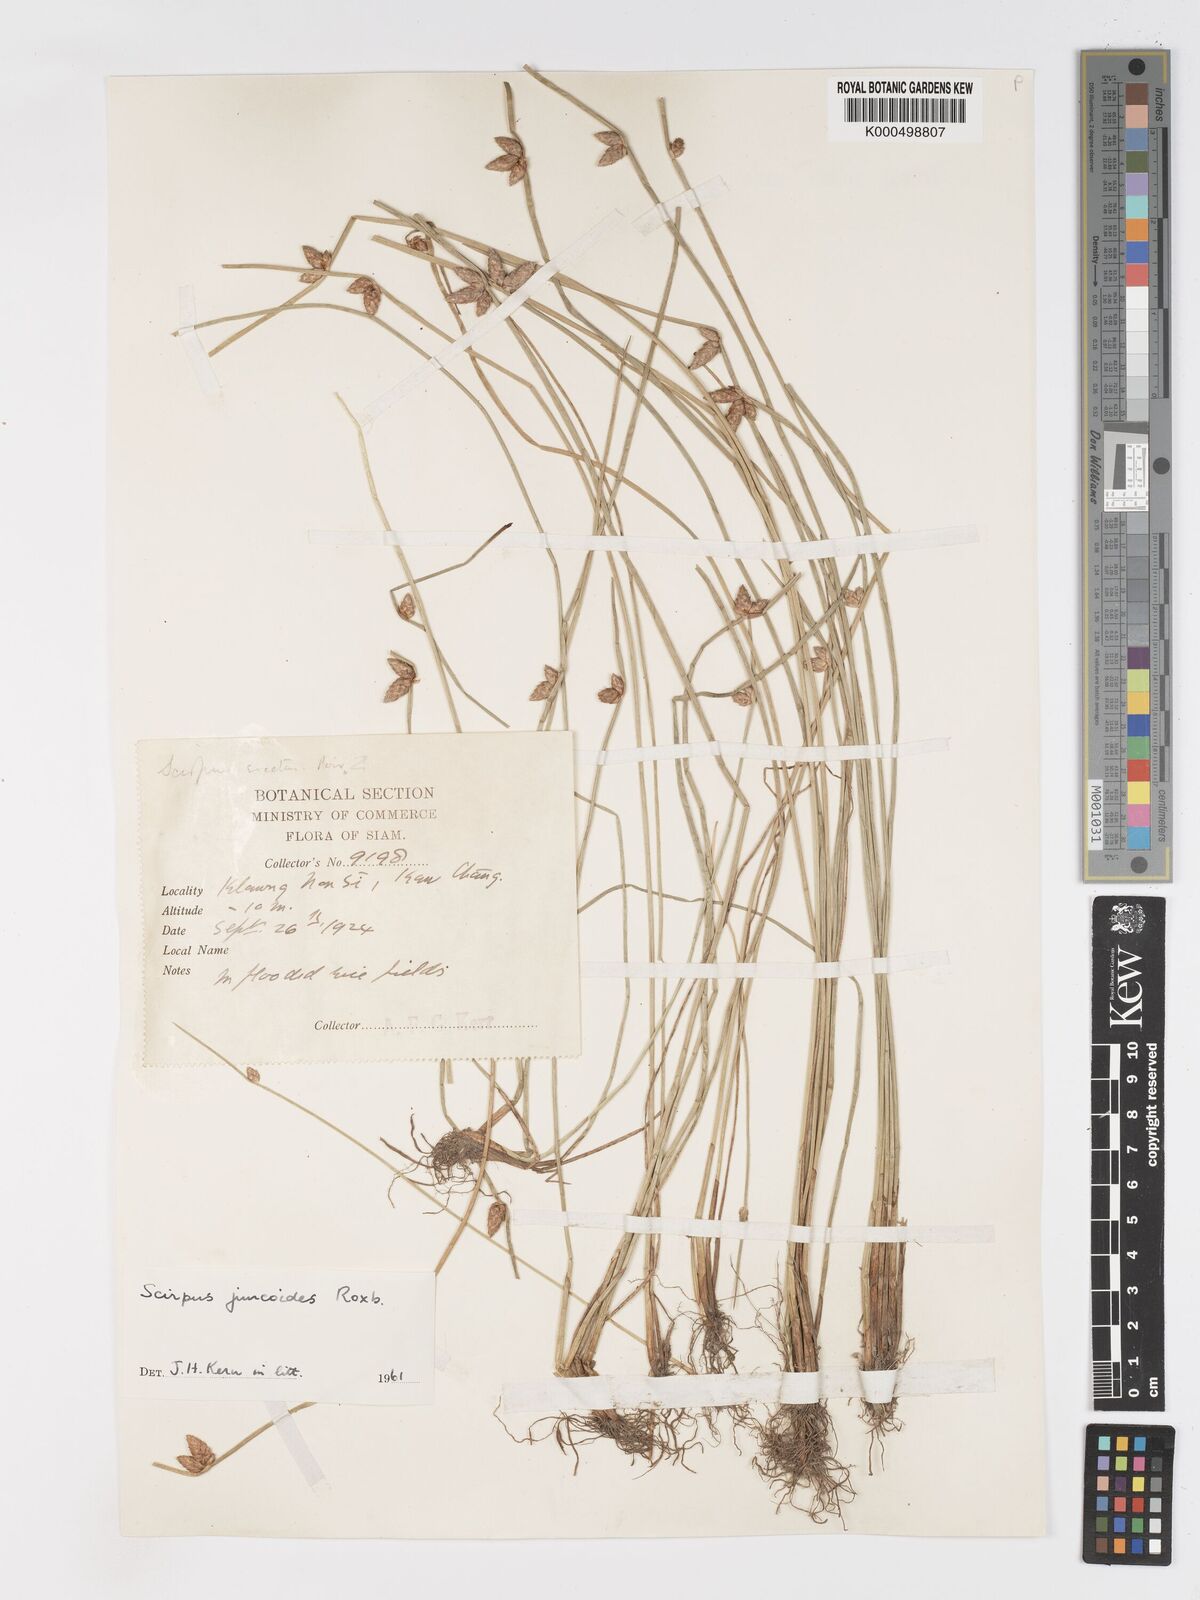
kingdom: Plantae
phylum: Tracheophyta
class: Liliopsida
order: Poales
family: Cyperaceae
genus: Schoenoplectiella
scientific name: Schoenoplectiella juncoides
